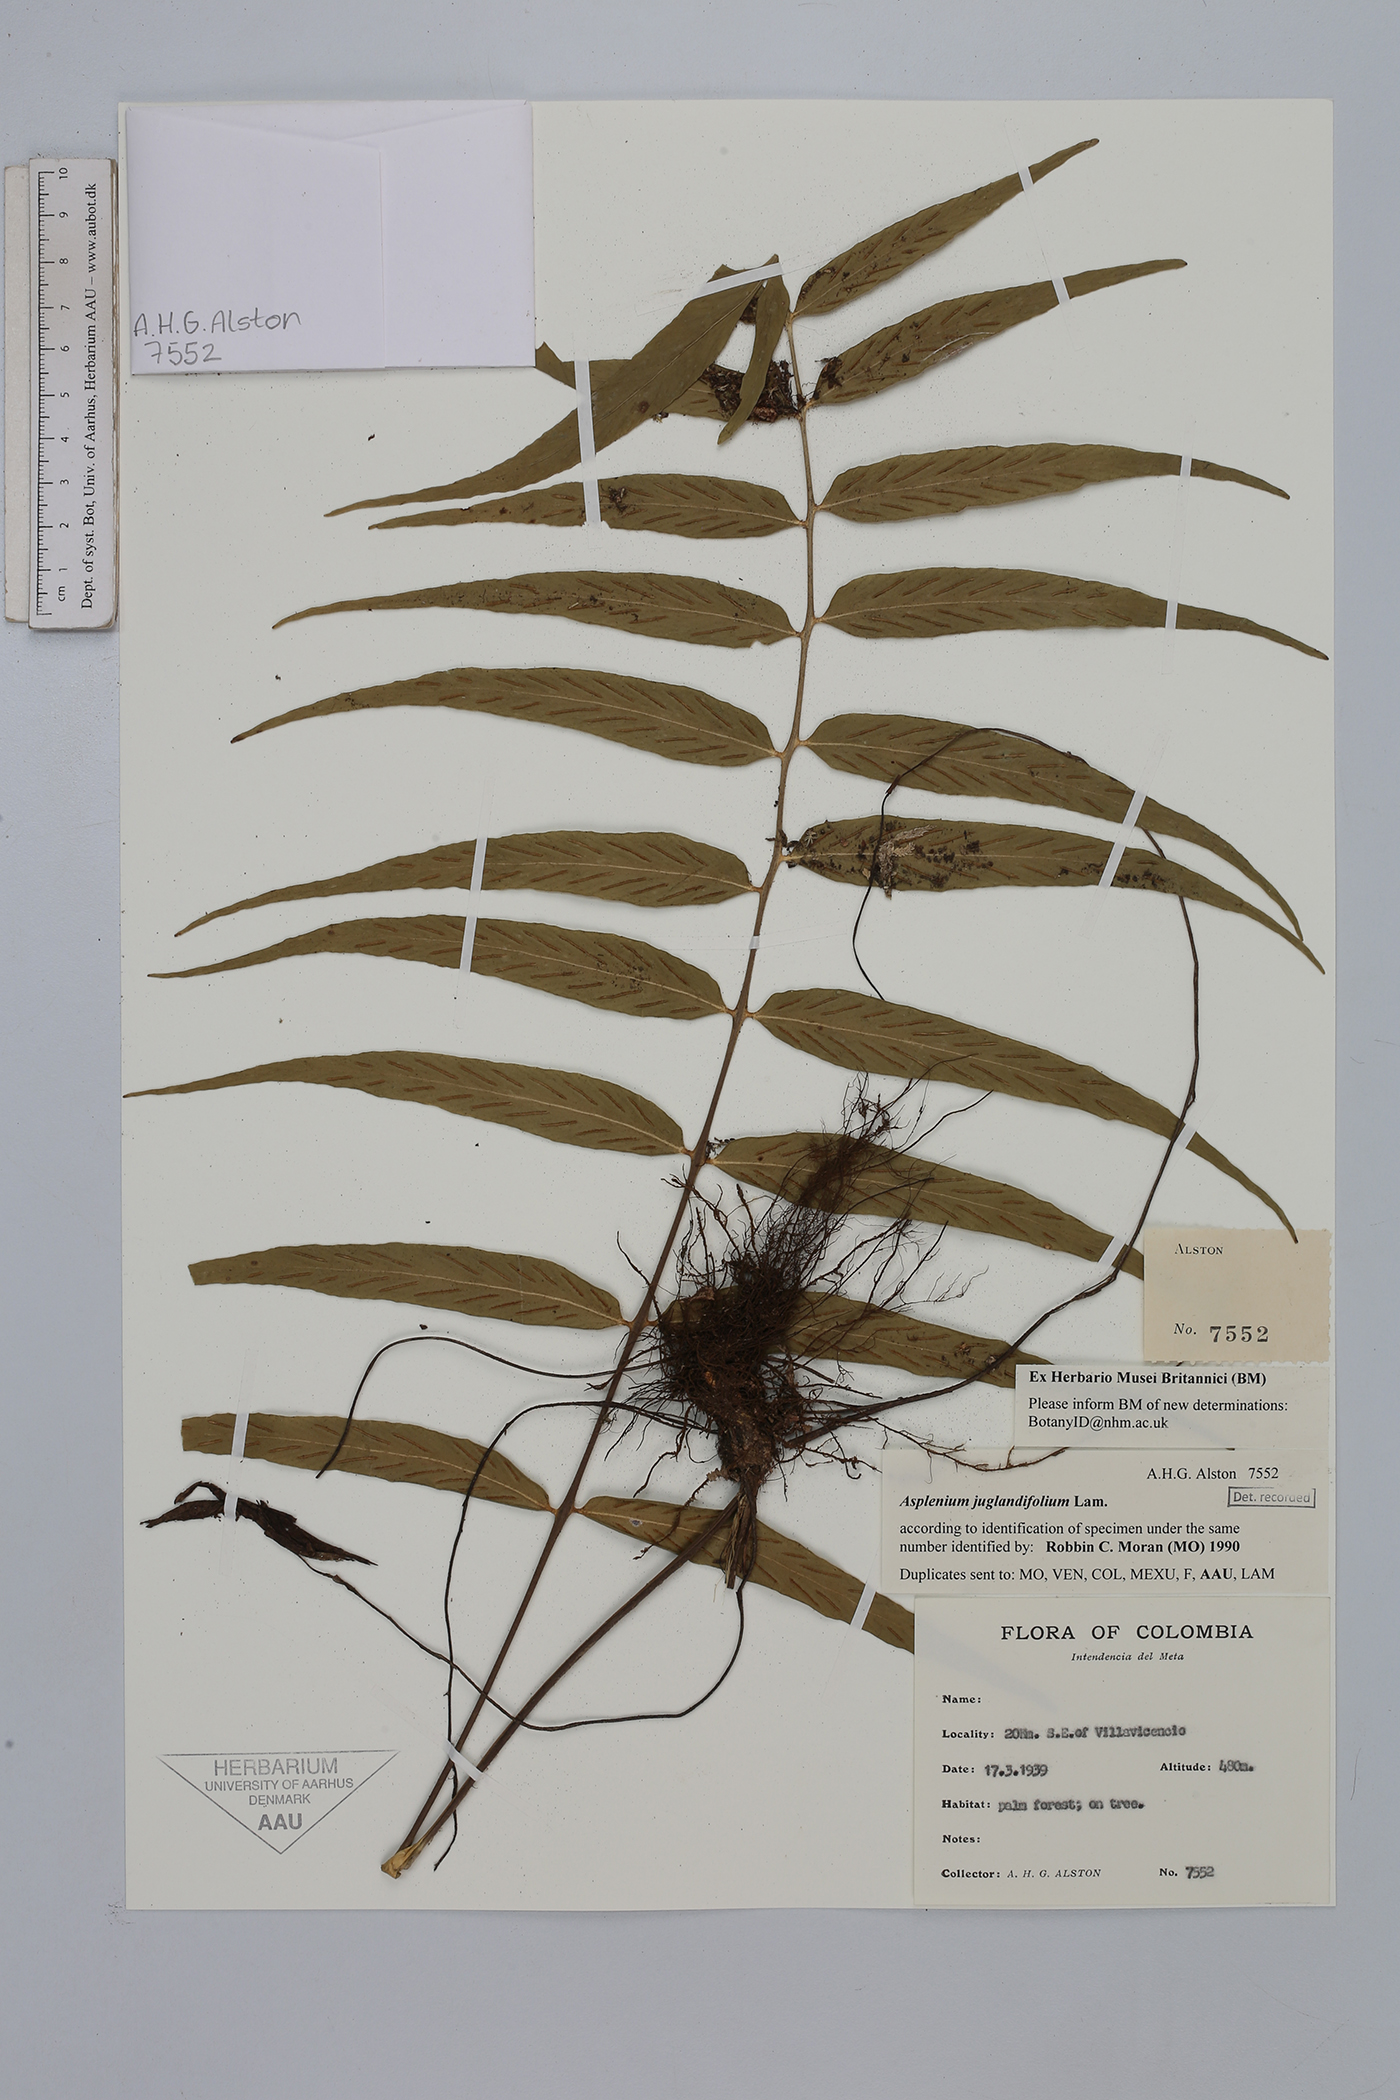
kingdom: Plantae
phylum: Tracheophyta
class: Polypodiopsida
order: Polypodiales
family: Aspleniaceae
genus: Asplenium
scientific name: Asplenium juglandifolium
